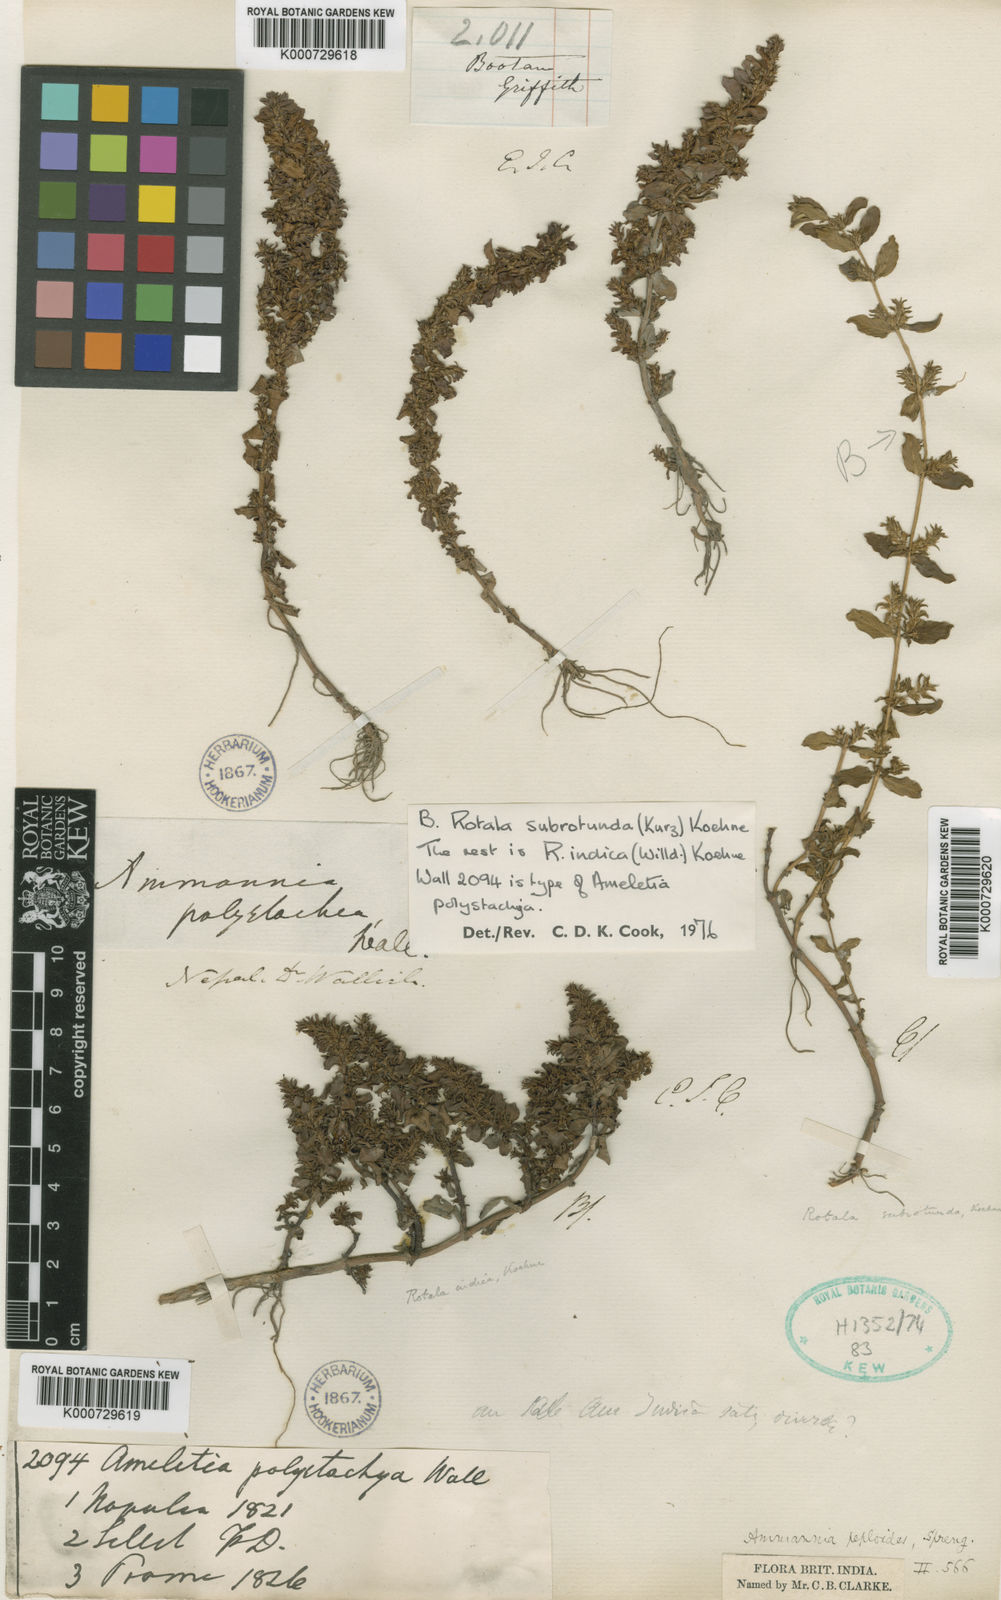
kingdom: Plantae
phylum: Tracheophyta
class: Magnoliopsida
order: Myrtales
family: Lythraceae
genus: Rotala
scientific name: Rotala indica
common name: Indian toothcup
